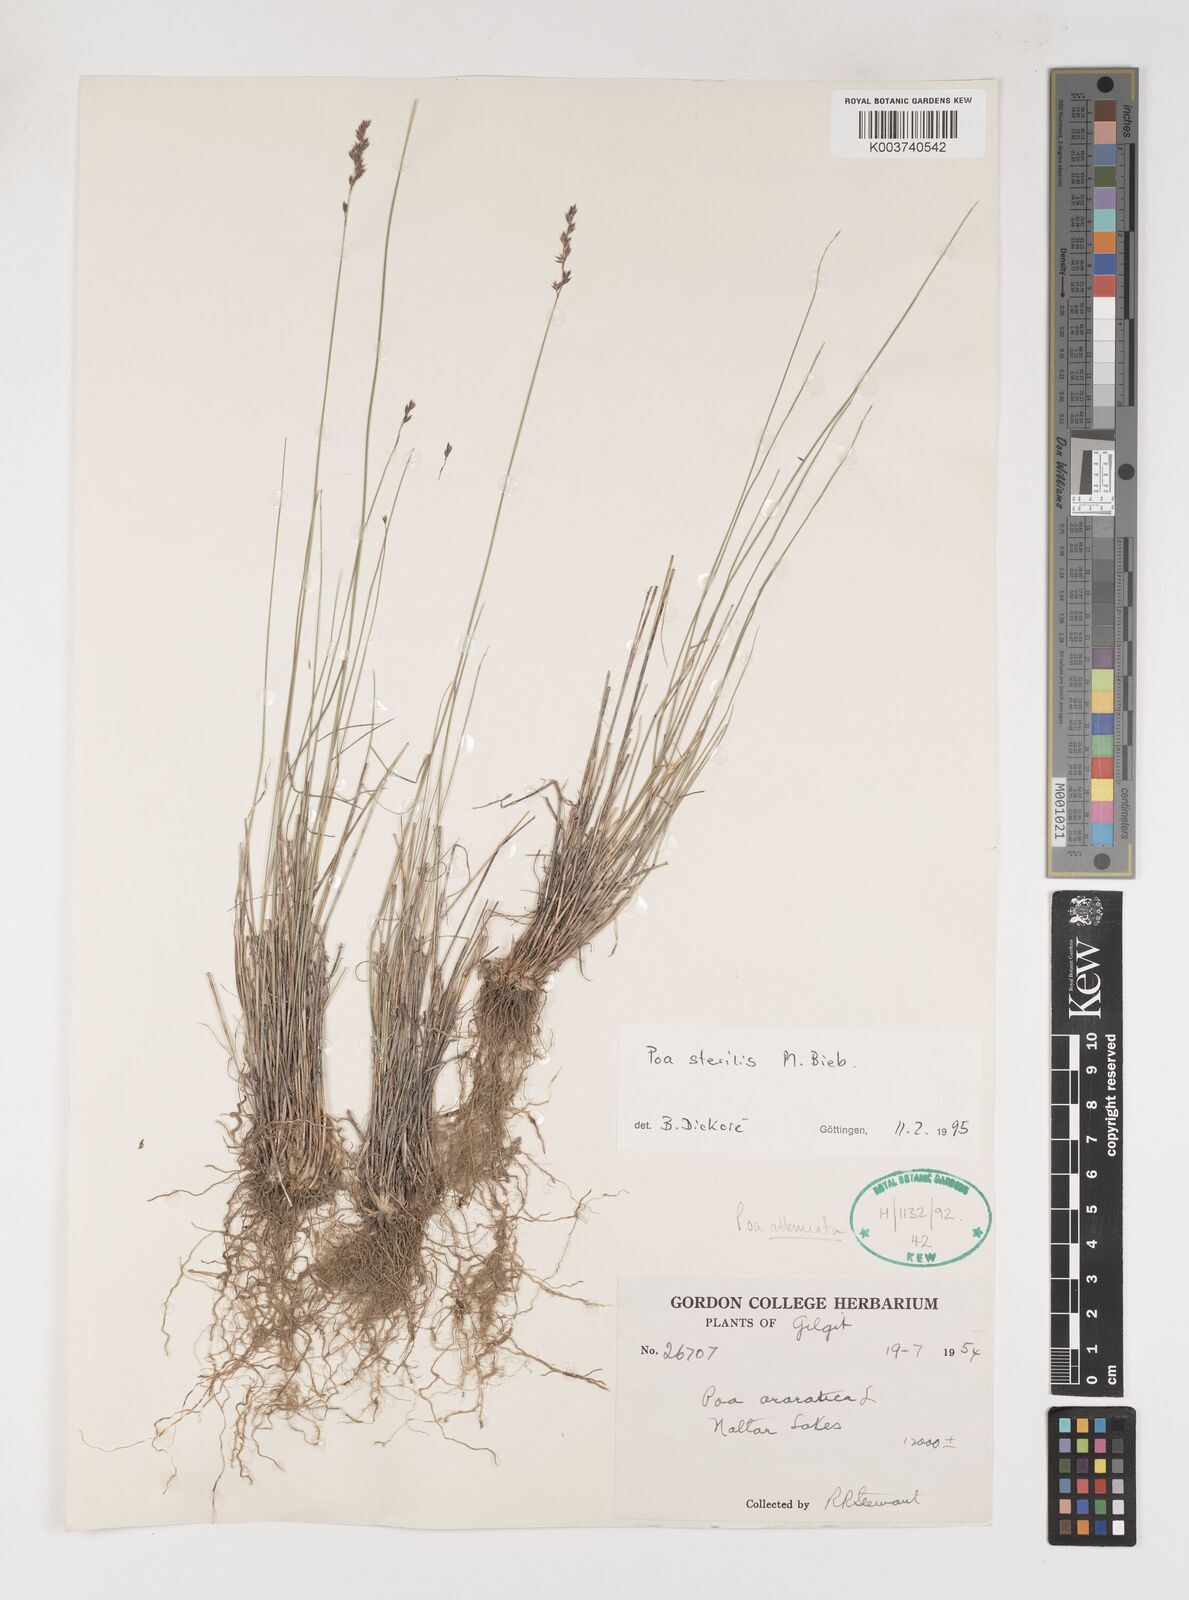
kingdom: Plantae
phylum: Tracheophyta
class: Liliopsida
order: Poales
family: Poaceae
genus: Poa
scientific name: Poa sterilis
